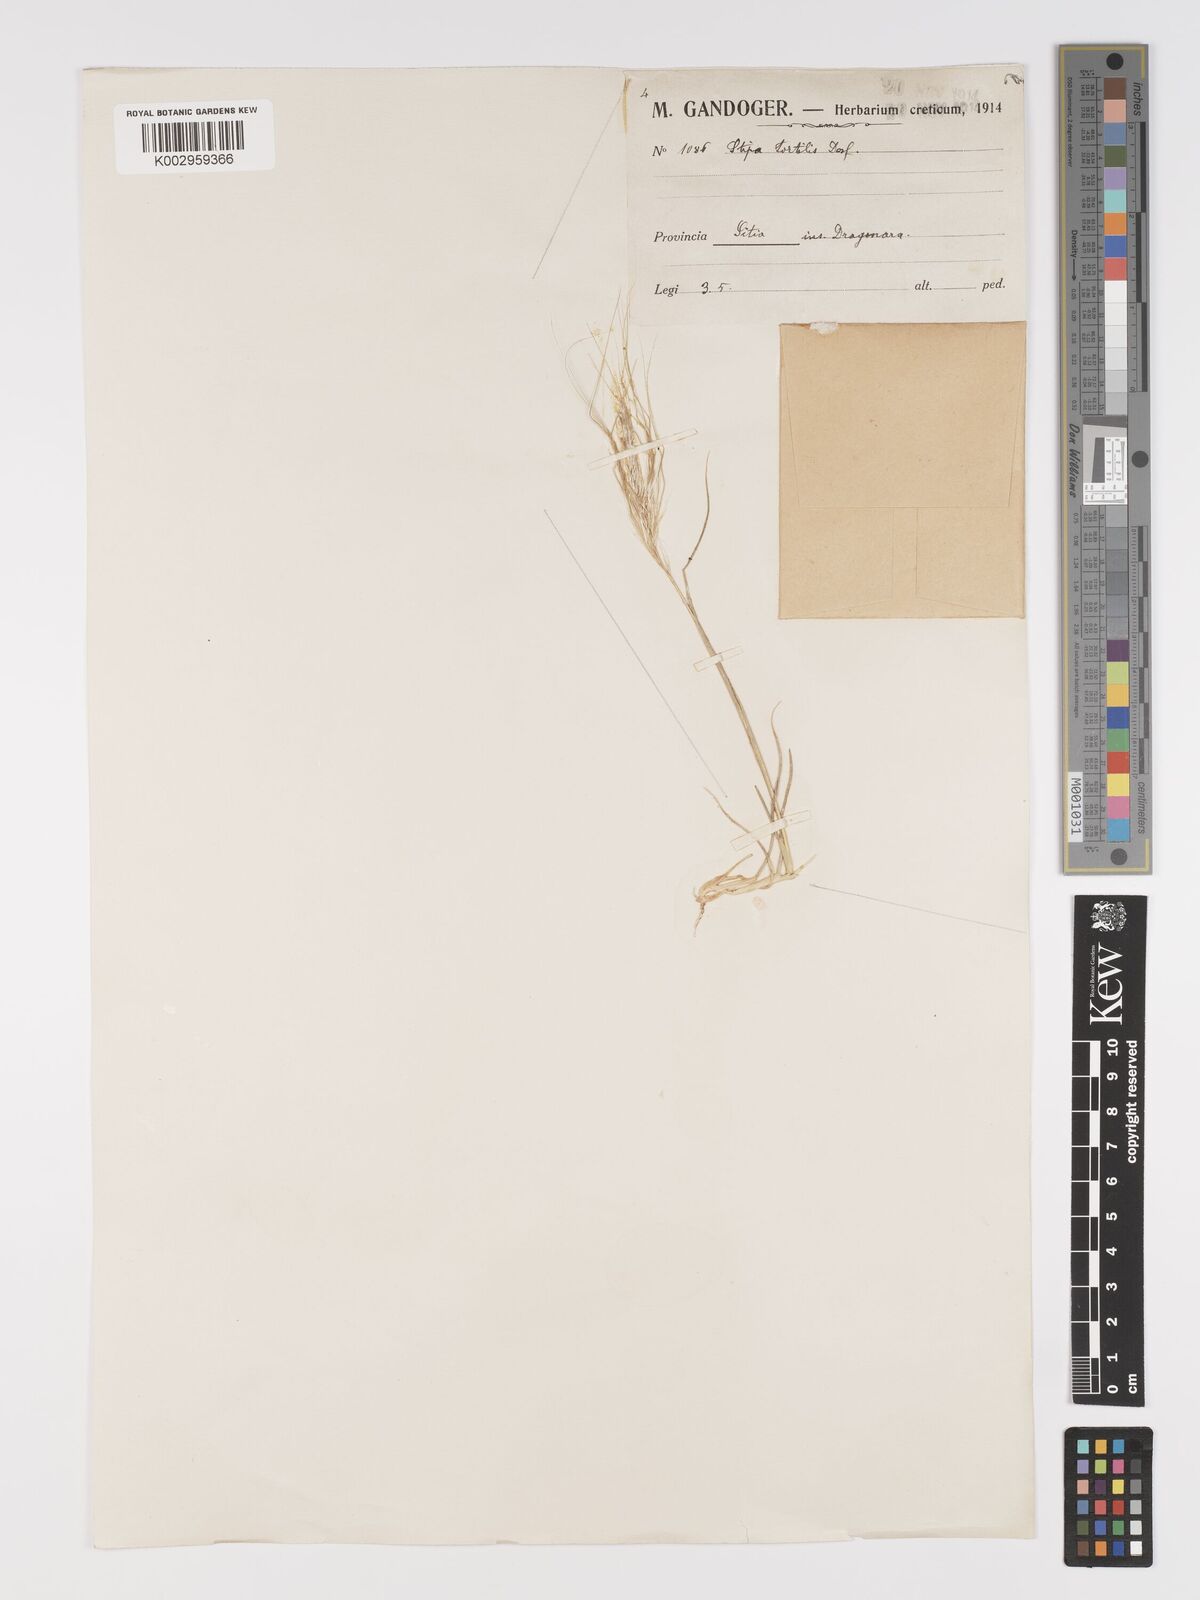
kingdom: Plantae
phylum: Tracheophyta
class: Liliopsida
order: Poales
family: Poaceae
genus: Stipellula
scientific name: Stipellula capensis
